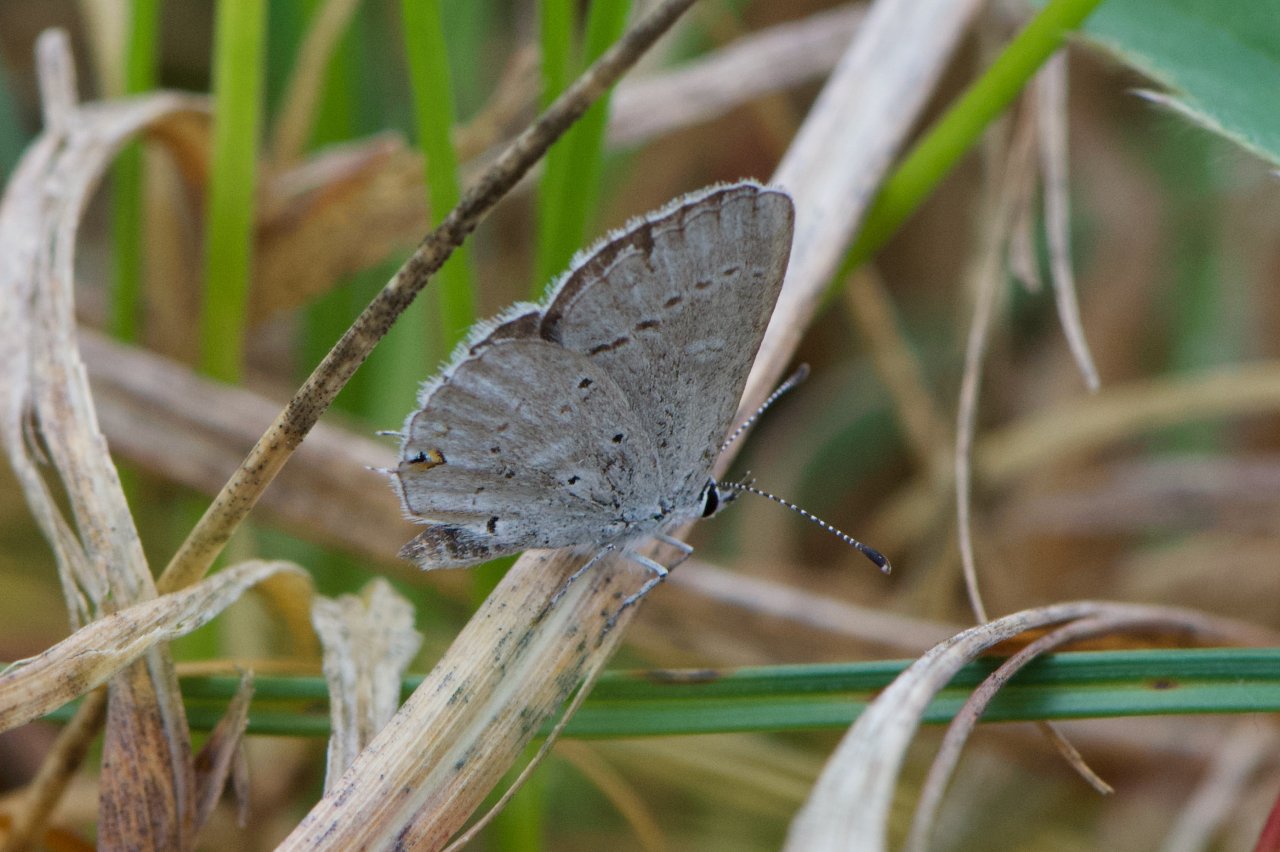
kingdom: Animalia
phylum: Arthropoda
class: Insecta
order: Lepidoptera
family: Lycaenidae
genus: Elkalyce
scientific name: Elkalyce comyntas
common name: Eastern Tailed-Blue
